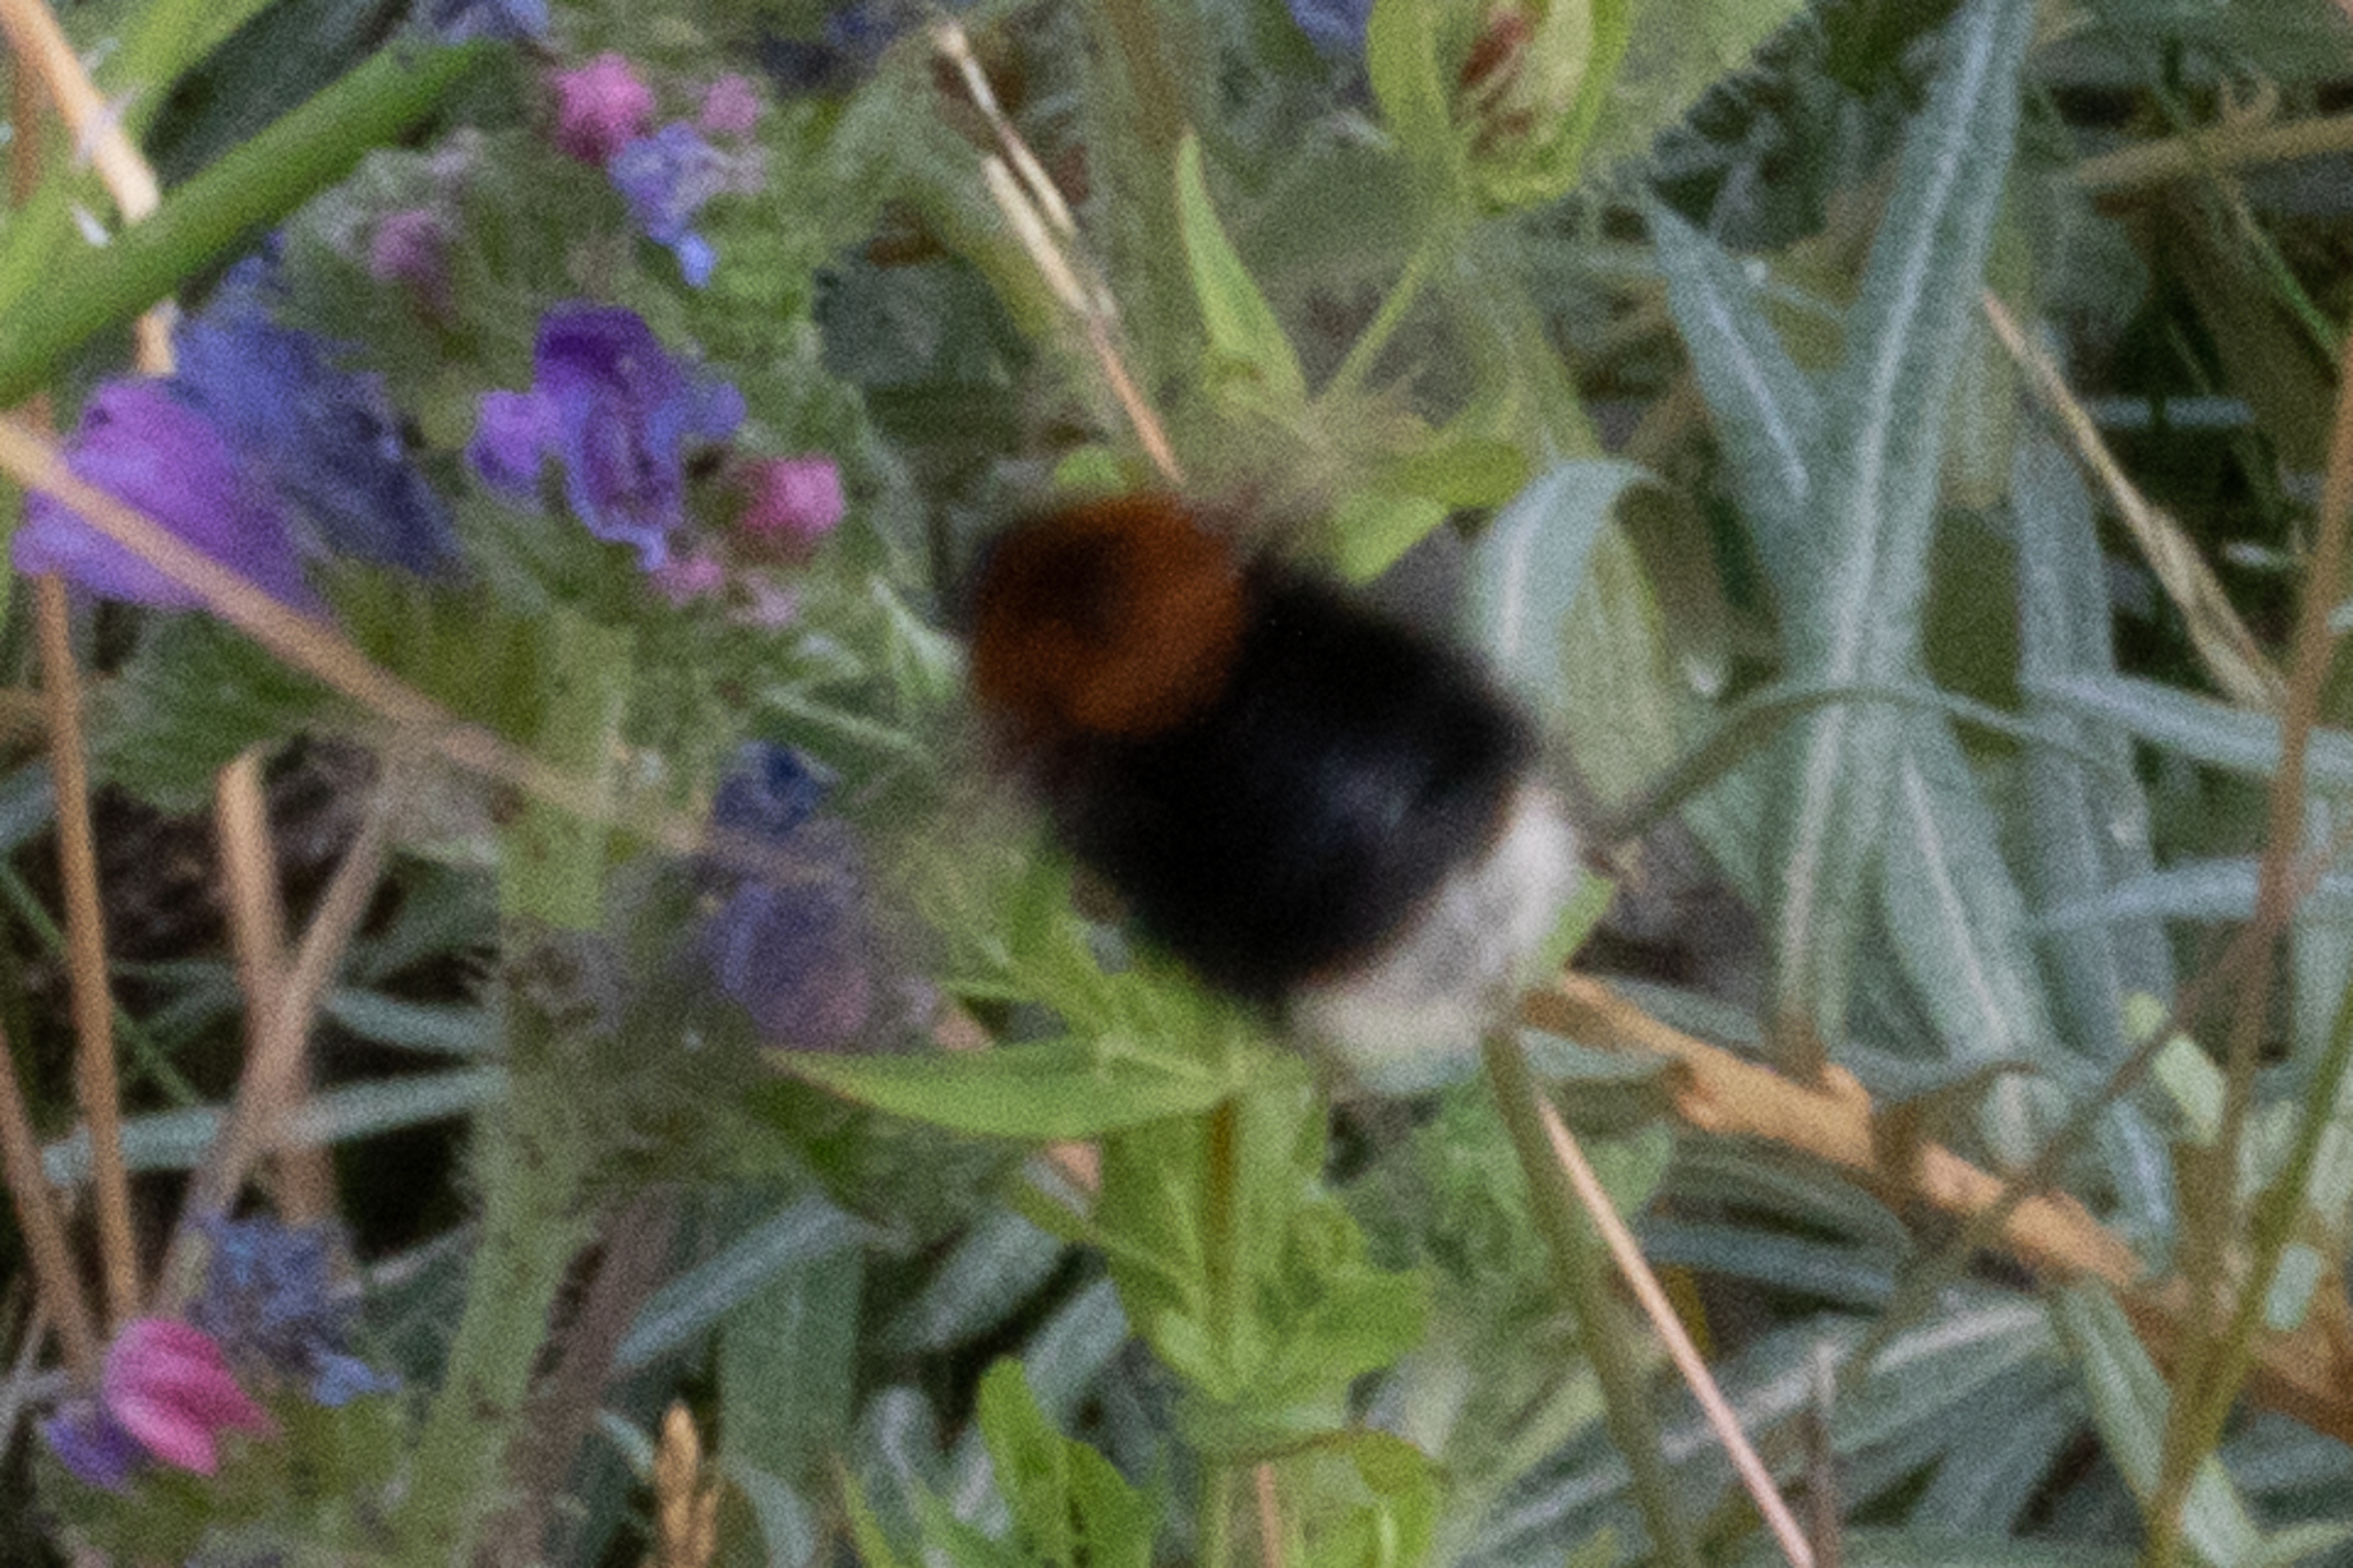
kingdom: Animalia
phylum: Arthropoda
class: Insecta
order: Hymenoptera
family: Apidae
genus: Bombus
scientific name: Bombus hypnorum
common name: Hushumle
